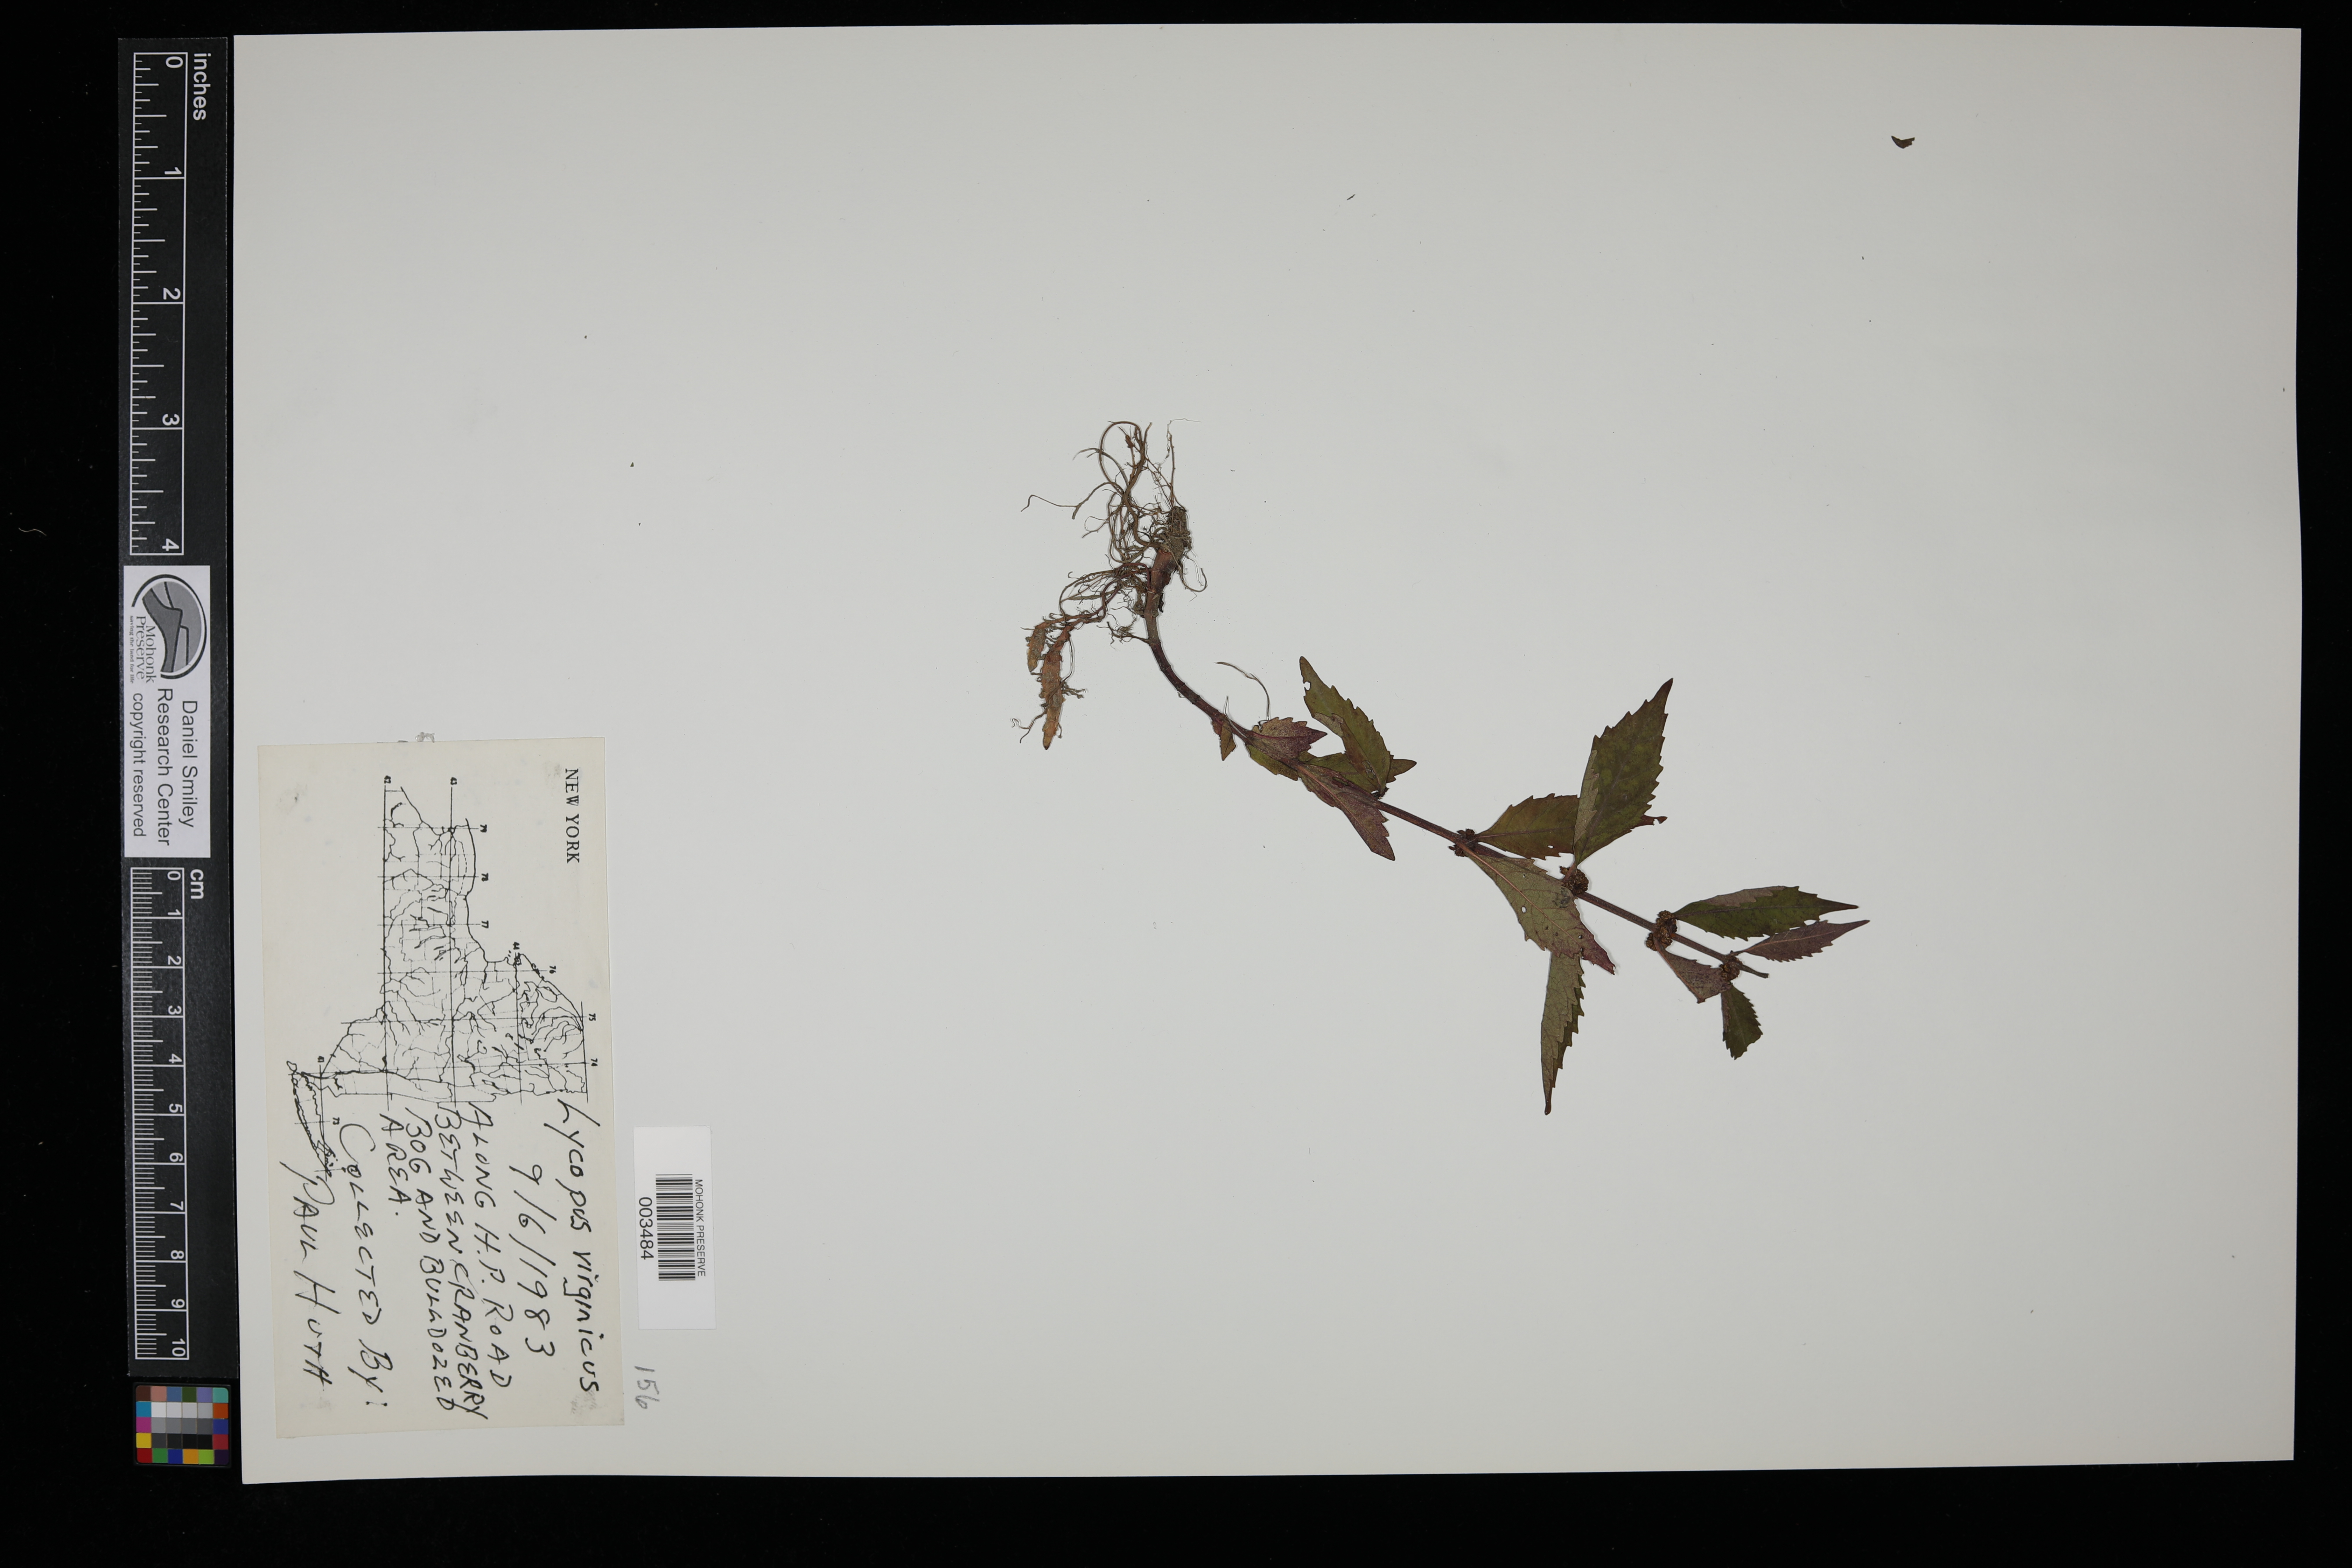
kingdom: Plantae
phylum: Tracheophyta
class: Magnoliopsida
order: Lamiales
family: Lamiaceae
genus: Lycopus
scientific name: Lycopus virginicus
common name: Bugleweed
